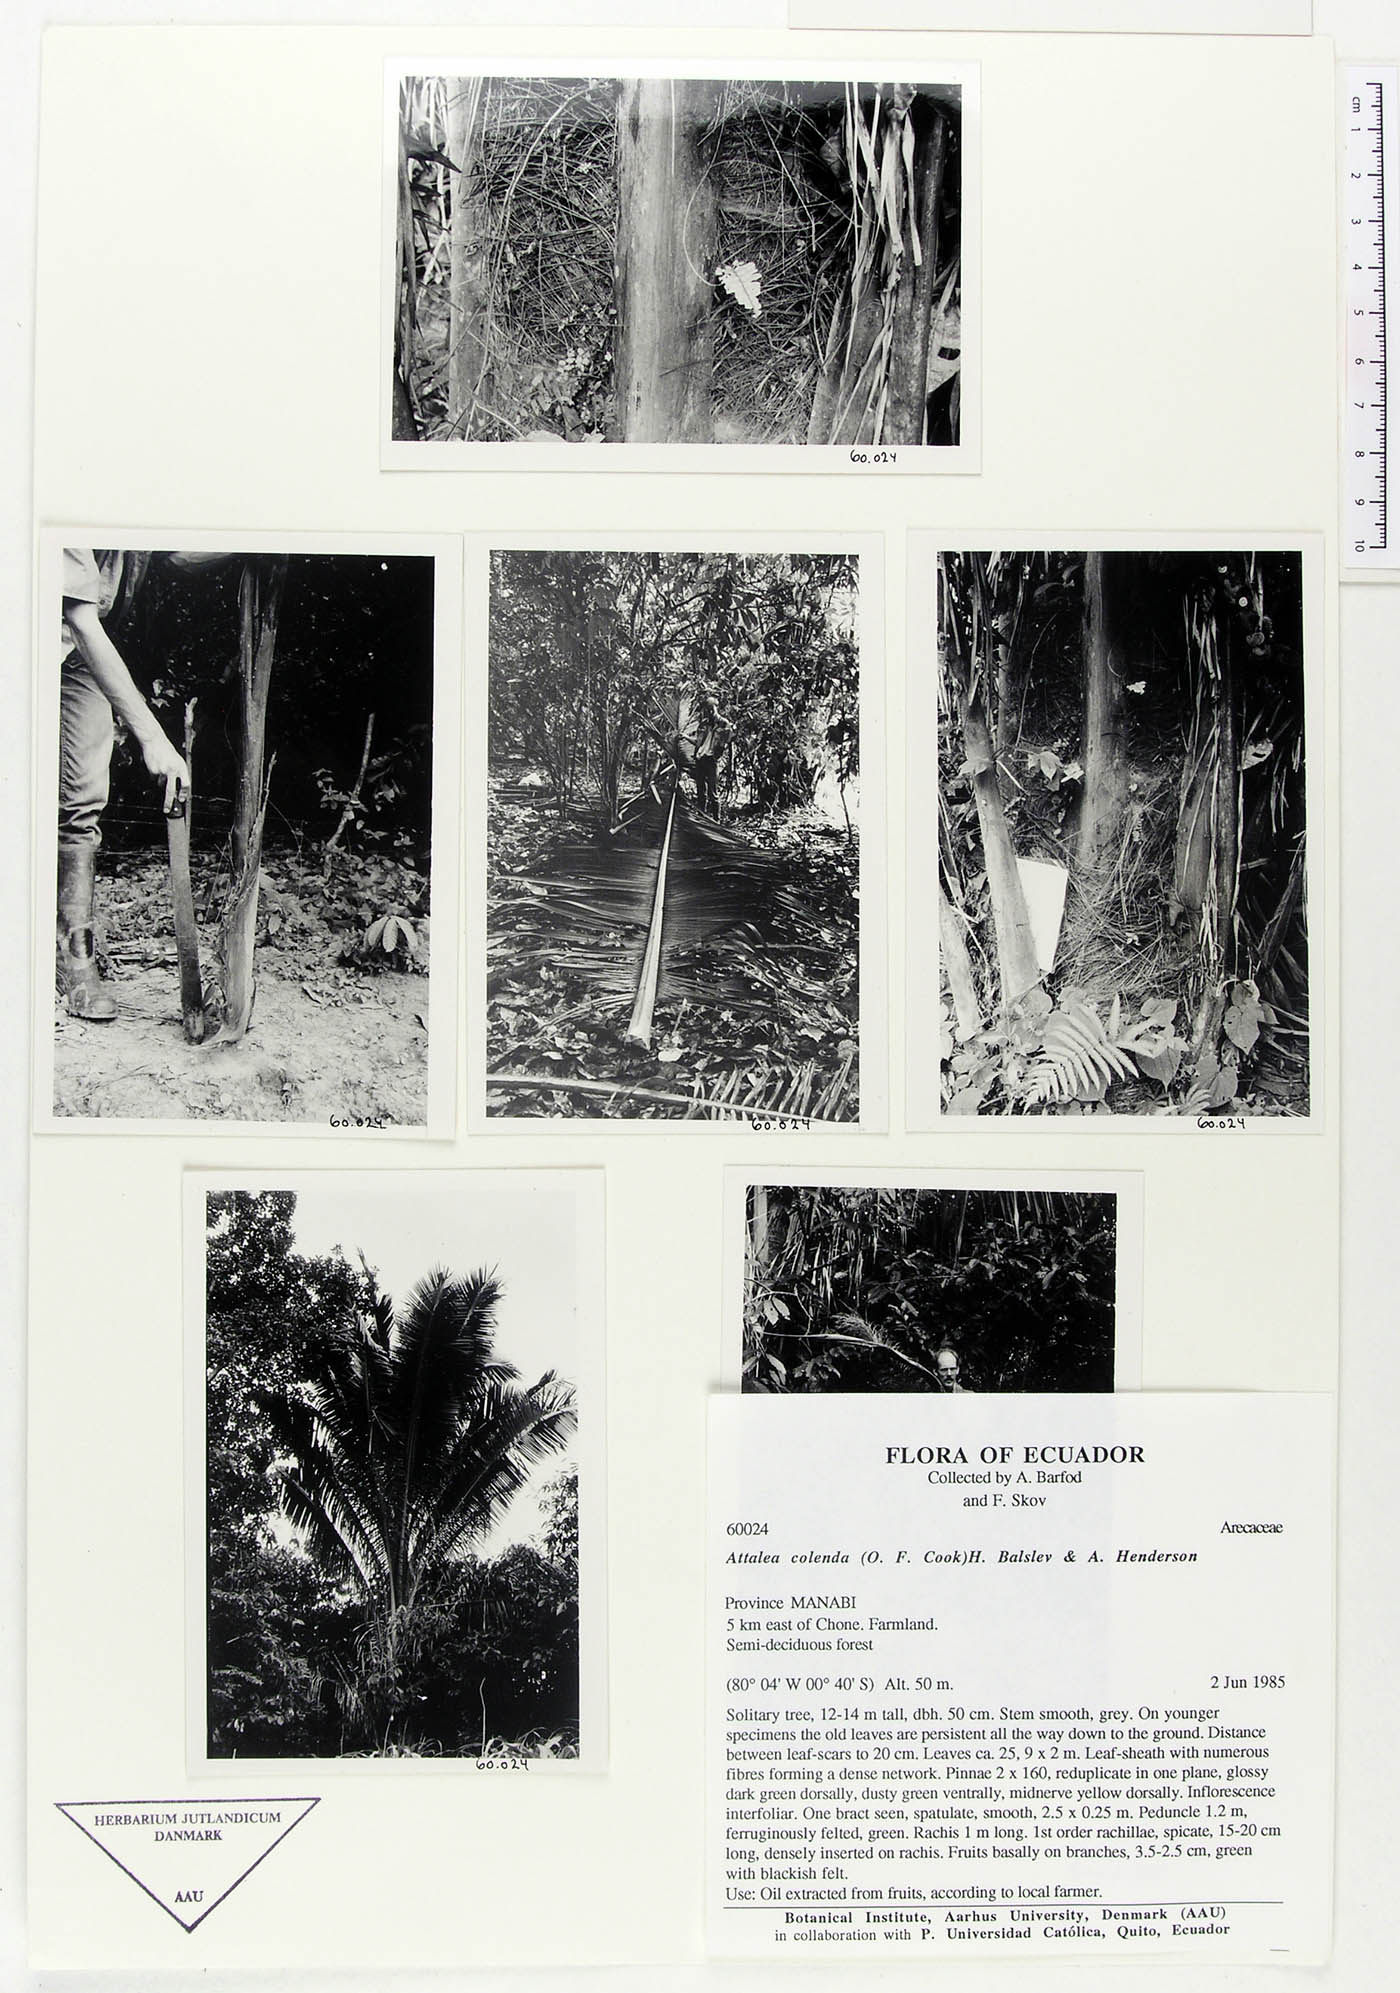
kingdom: Plantae
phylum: Tracheophyta
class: Liliopsida
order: Arecales
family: Arecaceae
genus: Attalea
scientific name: Attalea colenda
